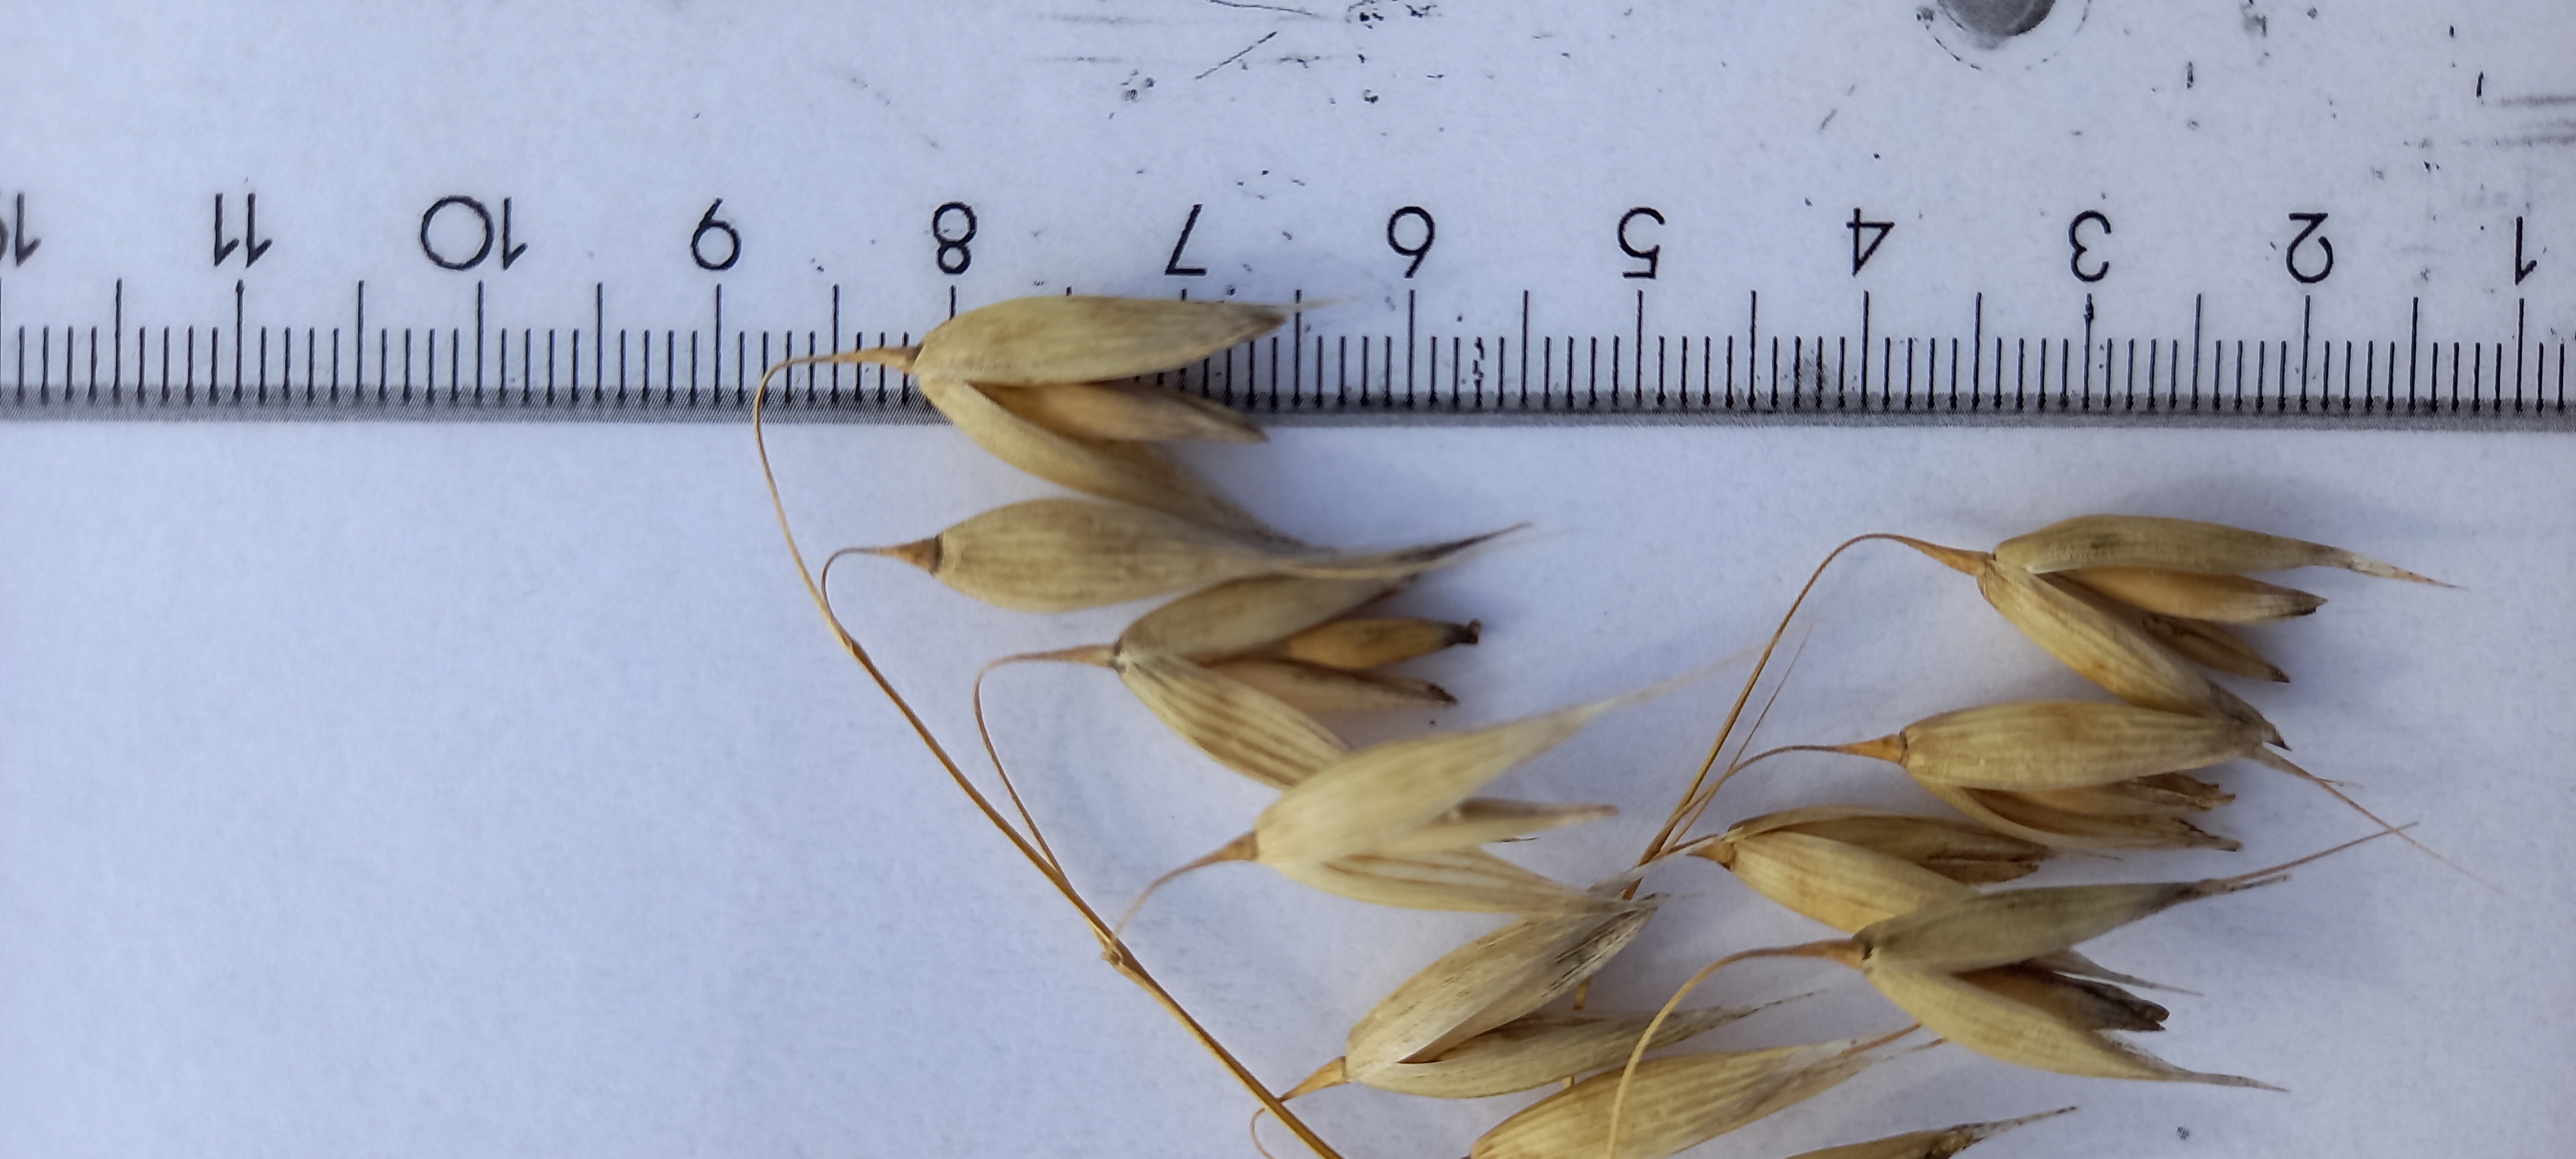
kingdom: Plantae
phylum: Tracheophyta
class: Liliopsida
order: Poales
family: Poaceae
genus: Avena
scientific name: Avena sativa
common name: Oat
